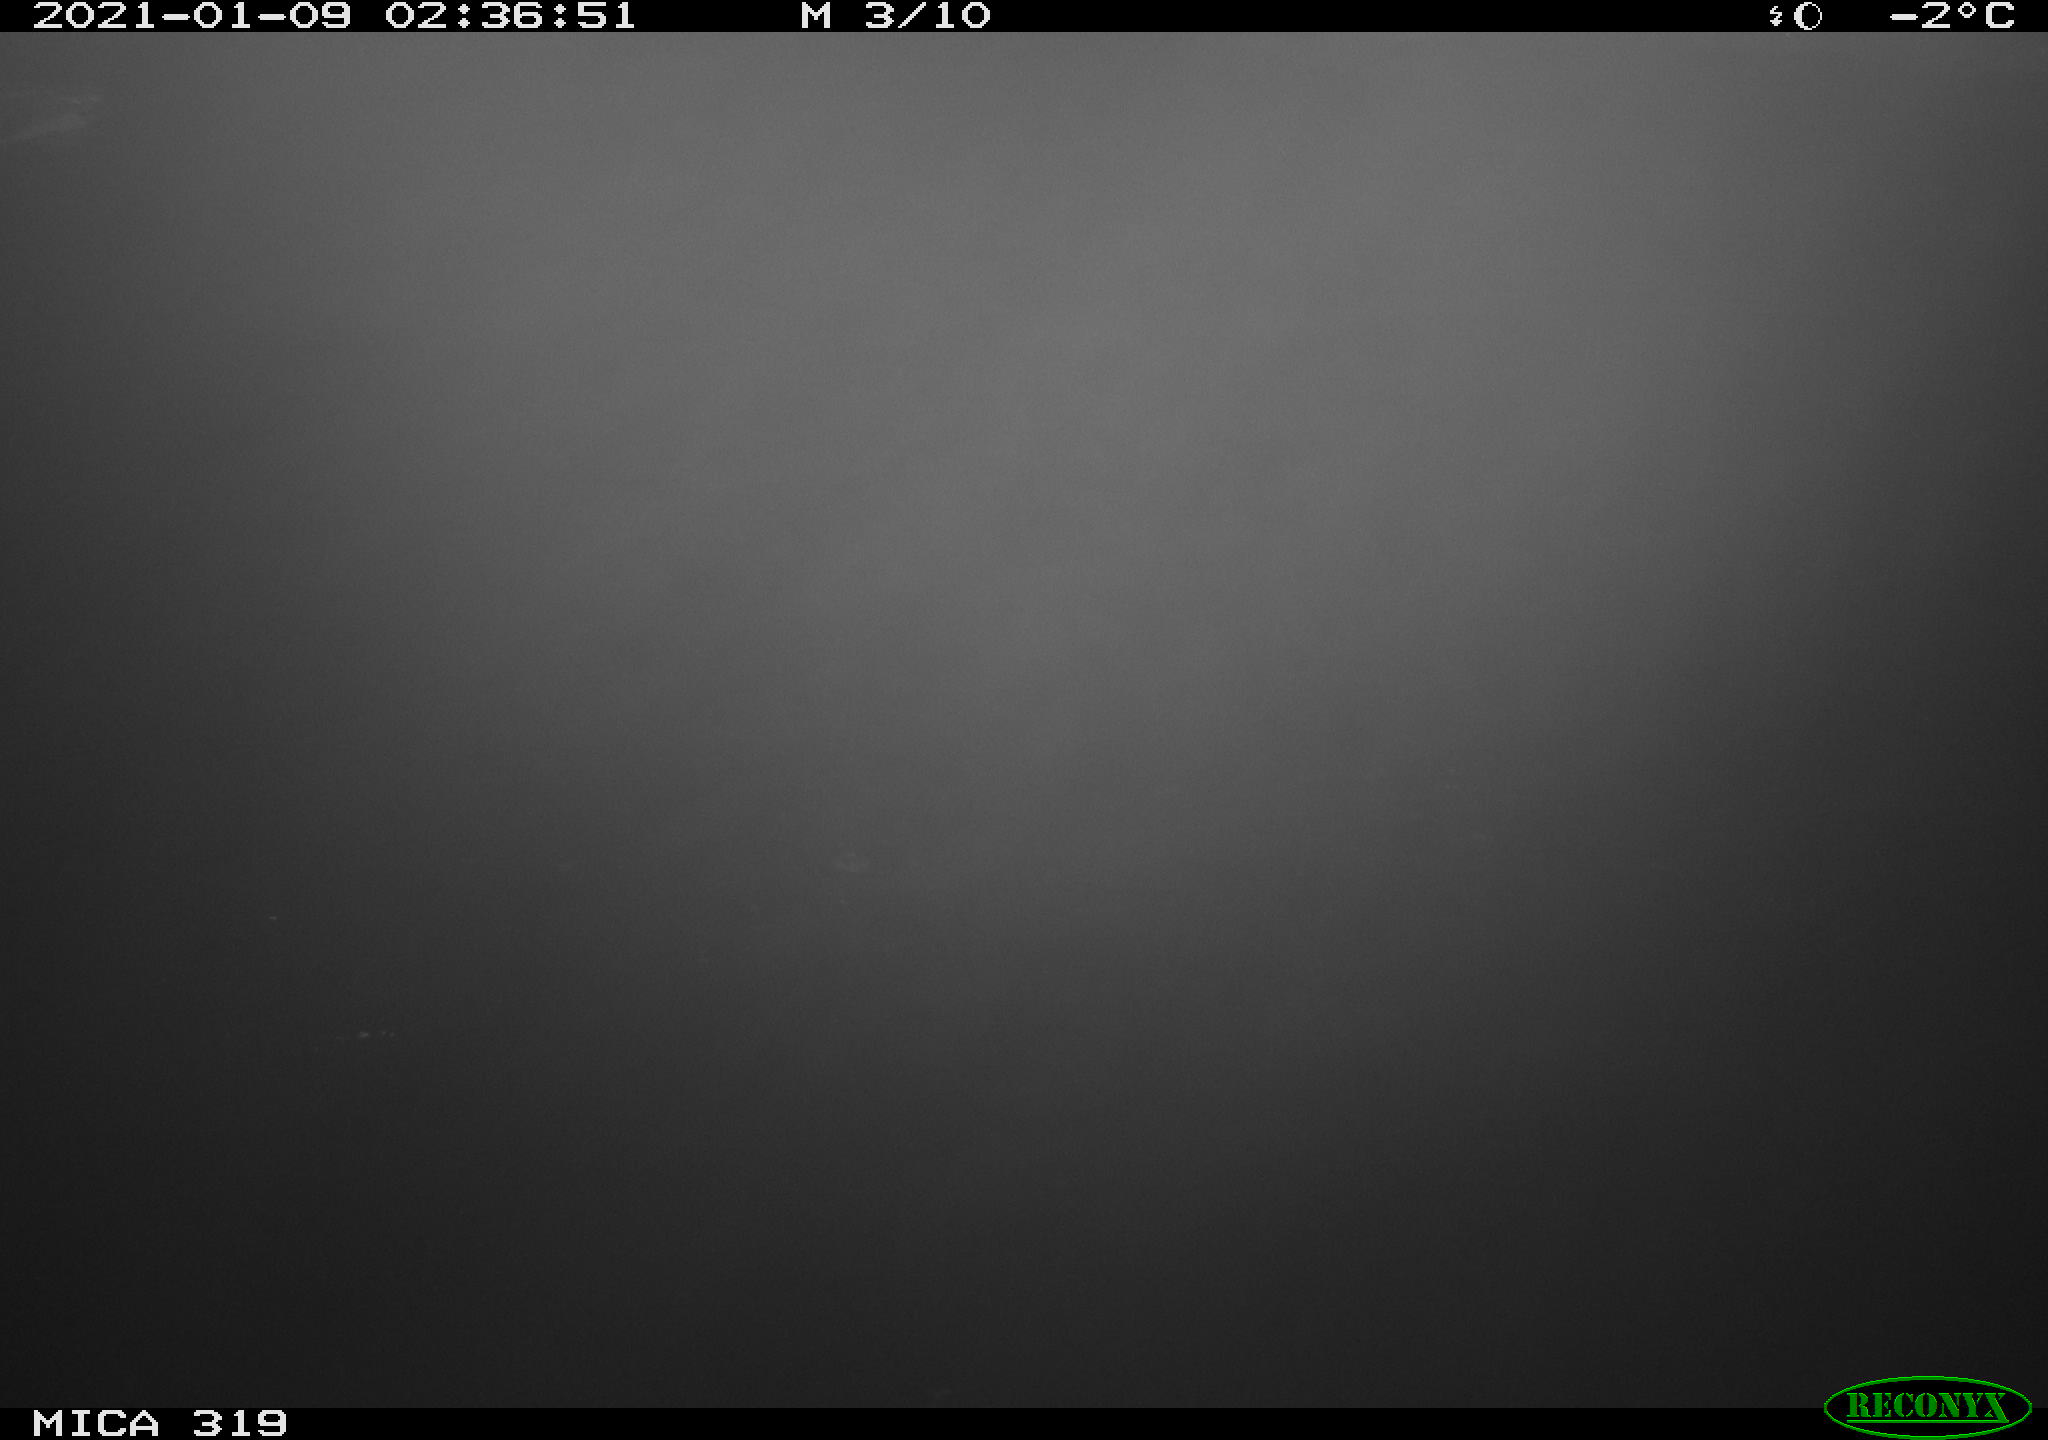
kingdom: Animalia
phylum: Chordata
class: Aves
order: Anseriformes
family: Anatidae
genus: Anas
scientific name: Anas platyrhynchos
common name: Mallard
